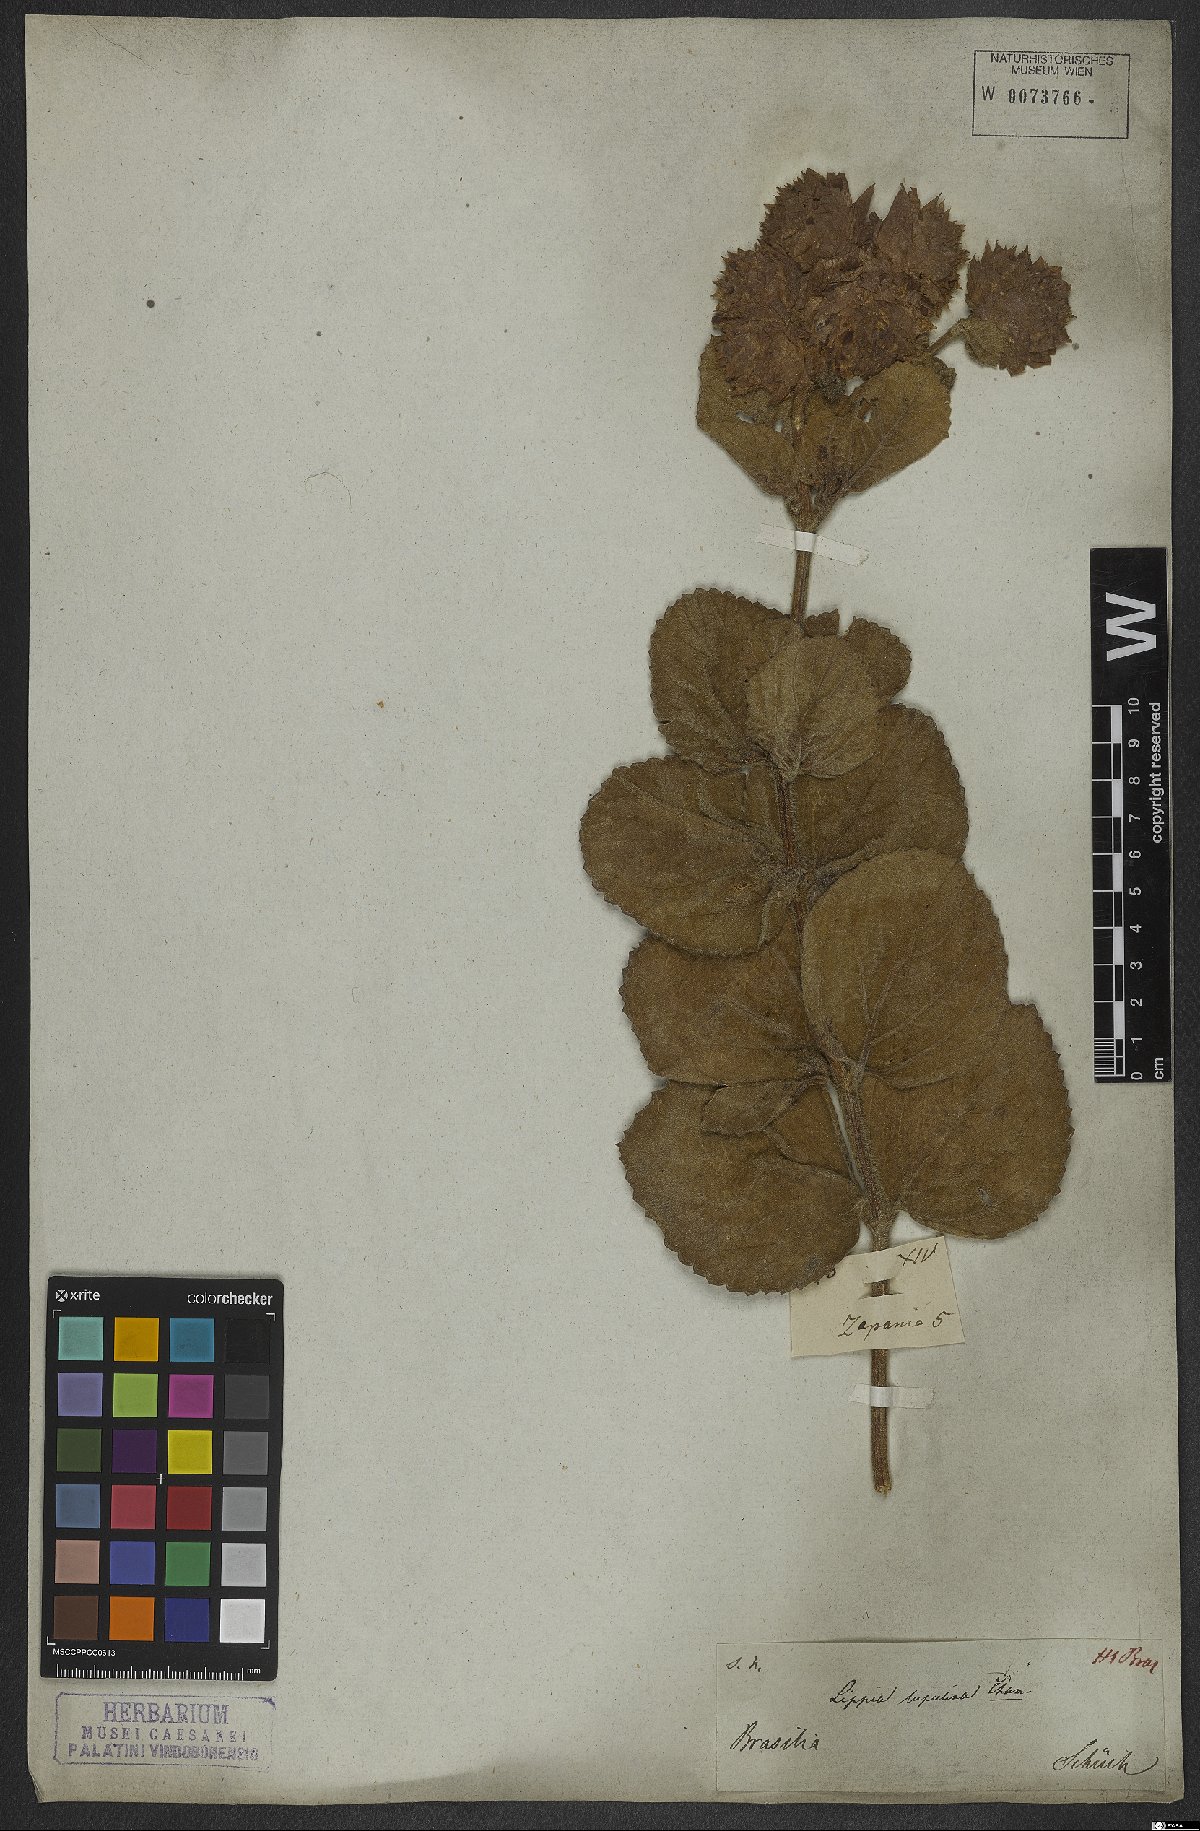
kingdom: Plantae
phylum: Tracheophyta
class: Magnoliopsida
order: Lamiales
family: Verbenaceae
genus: Lippia
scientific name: Lippia lupulina
